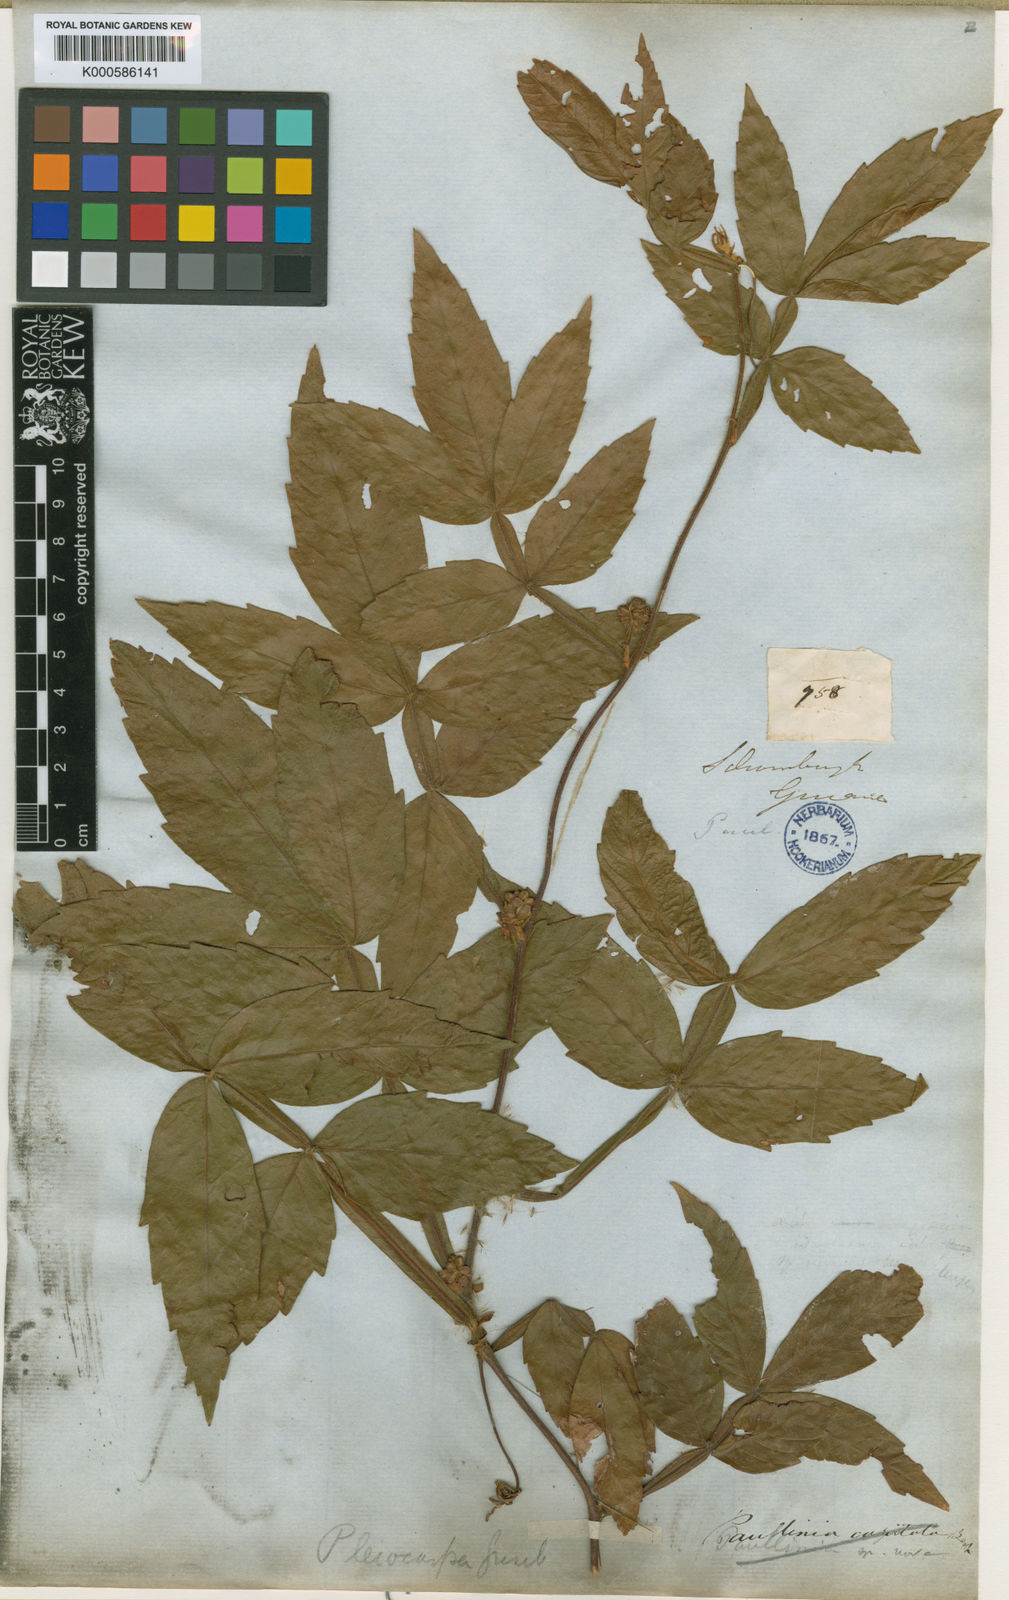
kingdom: Plantae
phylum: Tracheophyta
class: Magnoliopsida
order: Sapindales
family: Sapindaceae
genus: Paullinia
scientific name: Paullinia leiocarpa
